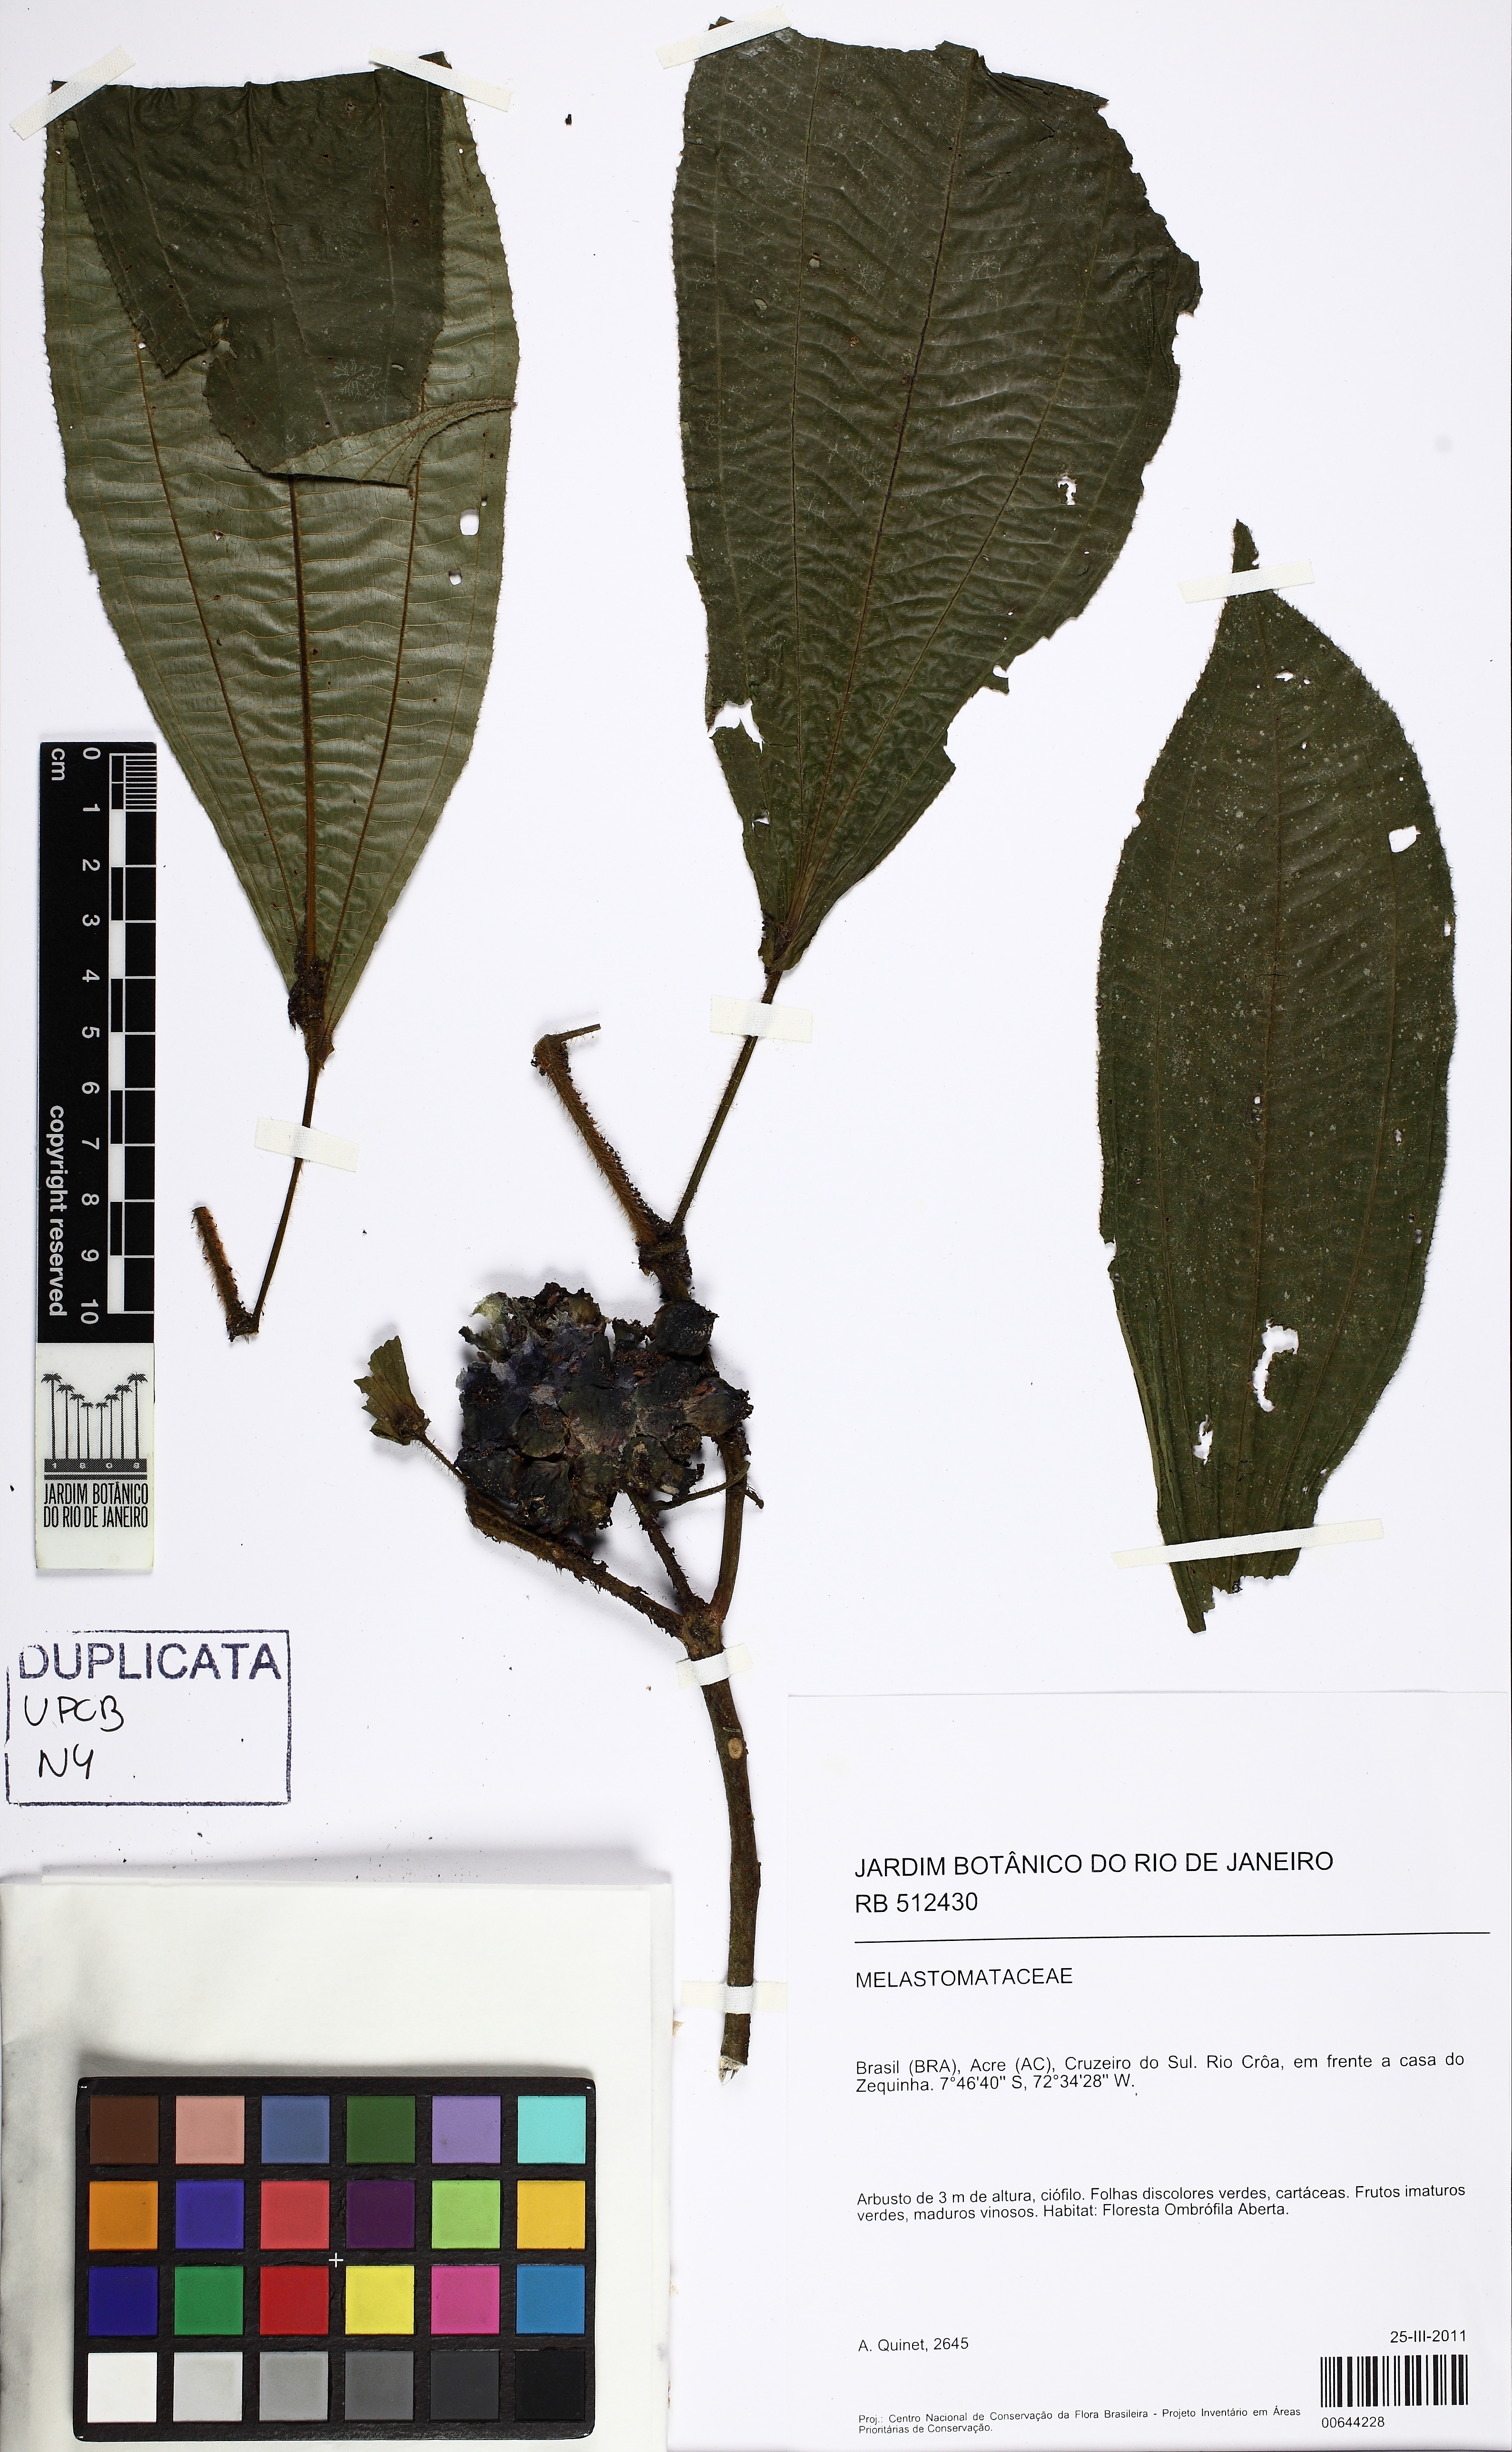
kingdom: Plantae
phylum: Tracheophyta
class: Magnoliopsida
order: Myrtales
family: Melastomataceae
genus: Miconia
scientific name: Miconia tococoronata
